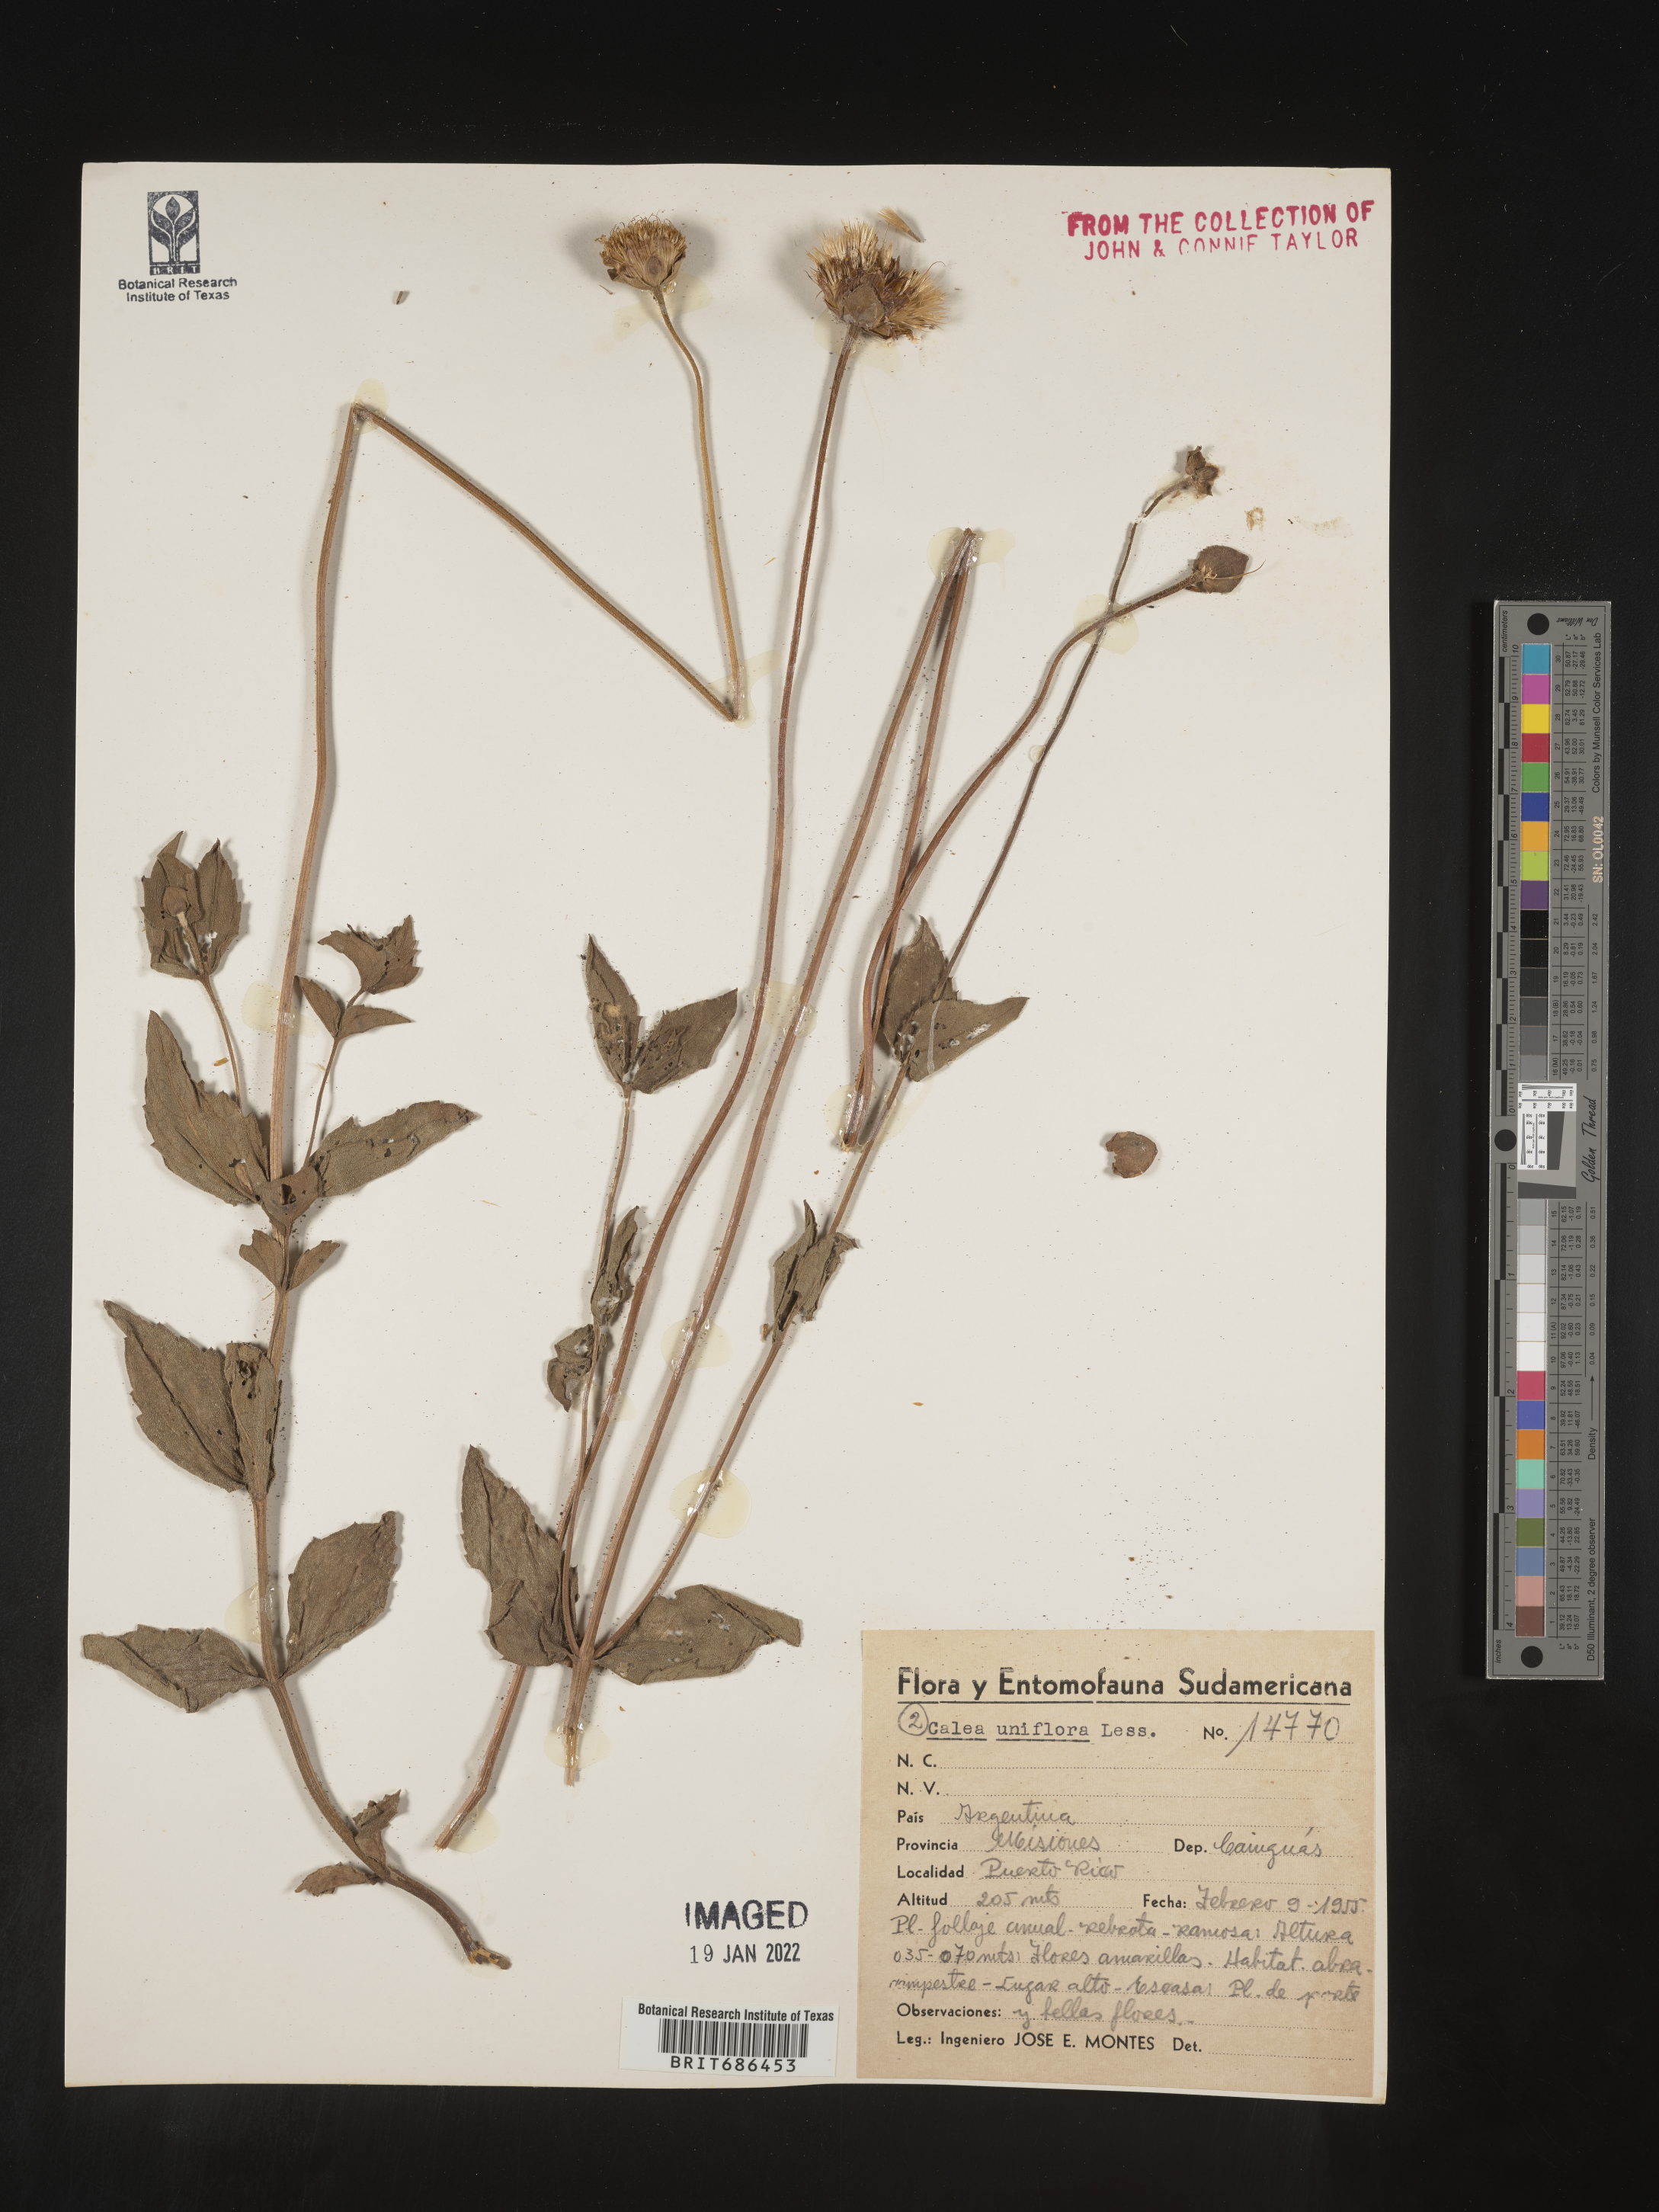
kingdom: Plantae
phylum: Tracheophyta
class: Magnoliopsida
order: Asterales
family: Asteraceae
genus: Calea
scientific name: Calea
